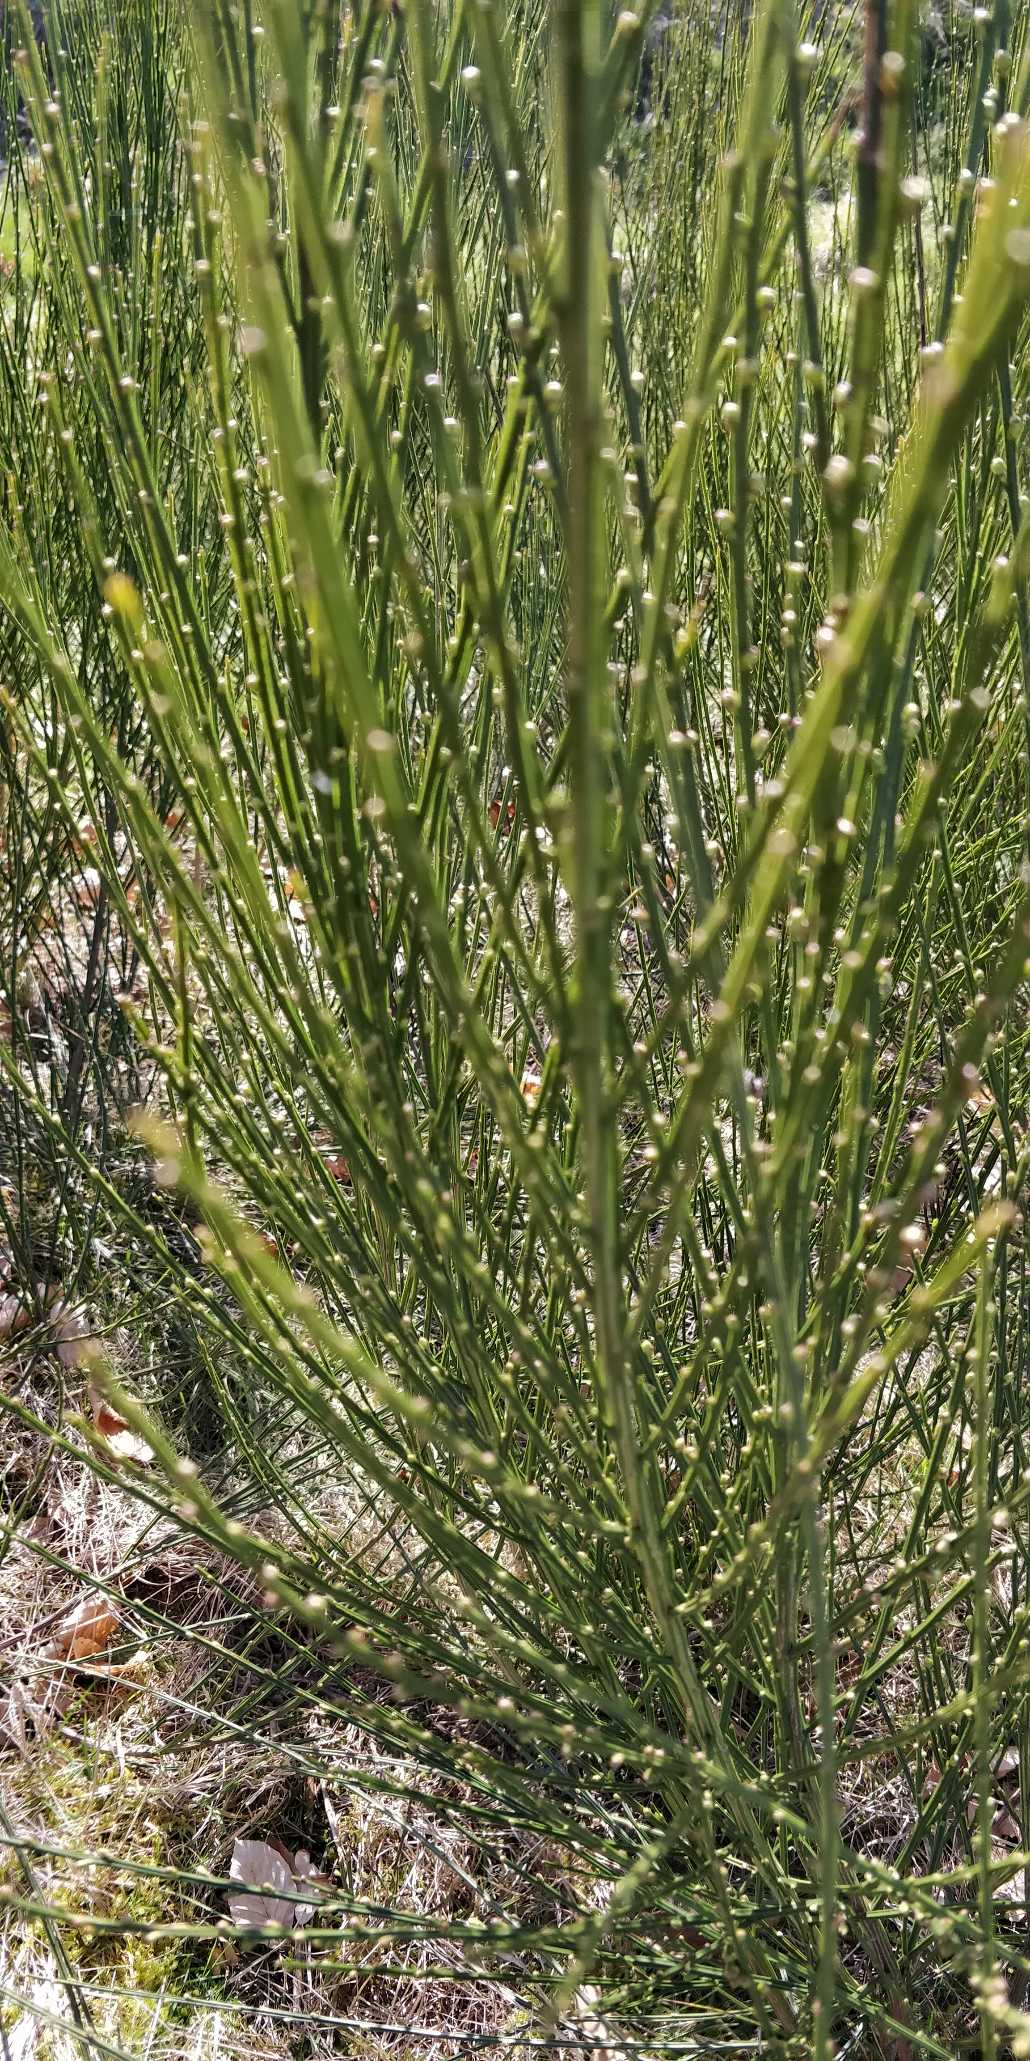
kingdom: Plantae
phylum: Tracheophyta
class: Magnoliopsida
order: Fabales
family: Fabaceae
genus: Cytisus
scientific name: Cytisus scoparius
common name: Almindelig gyvel
